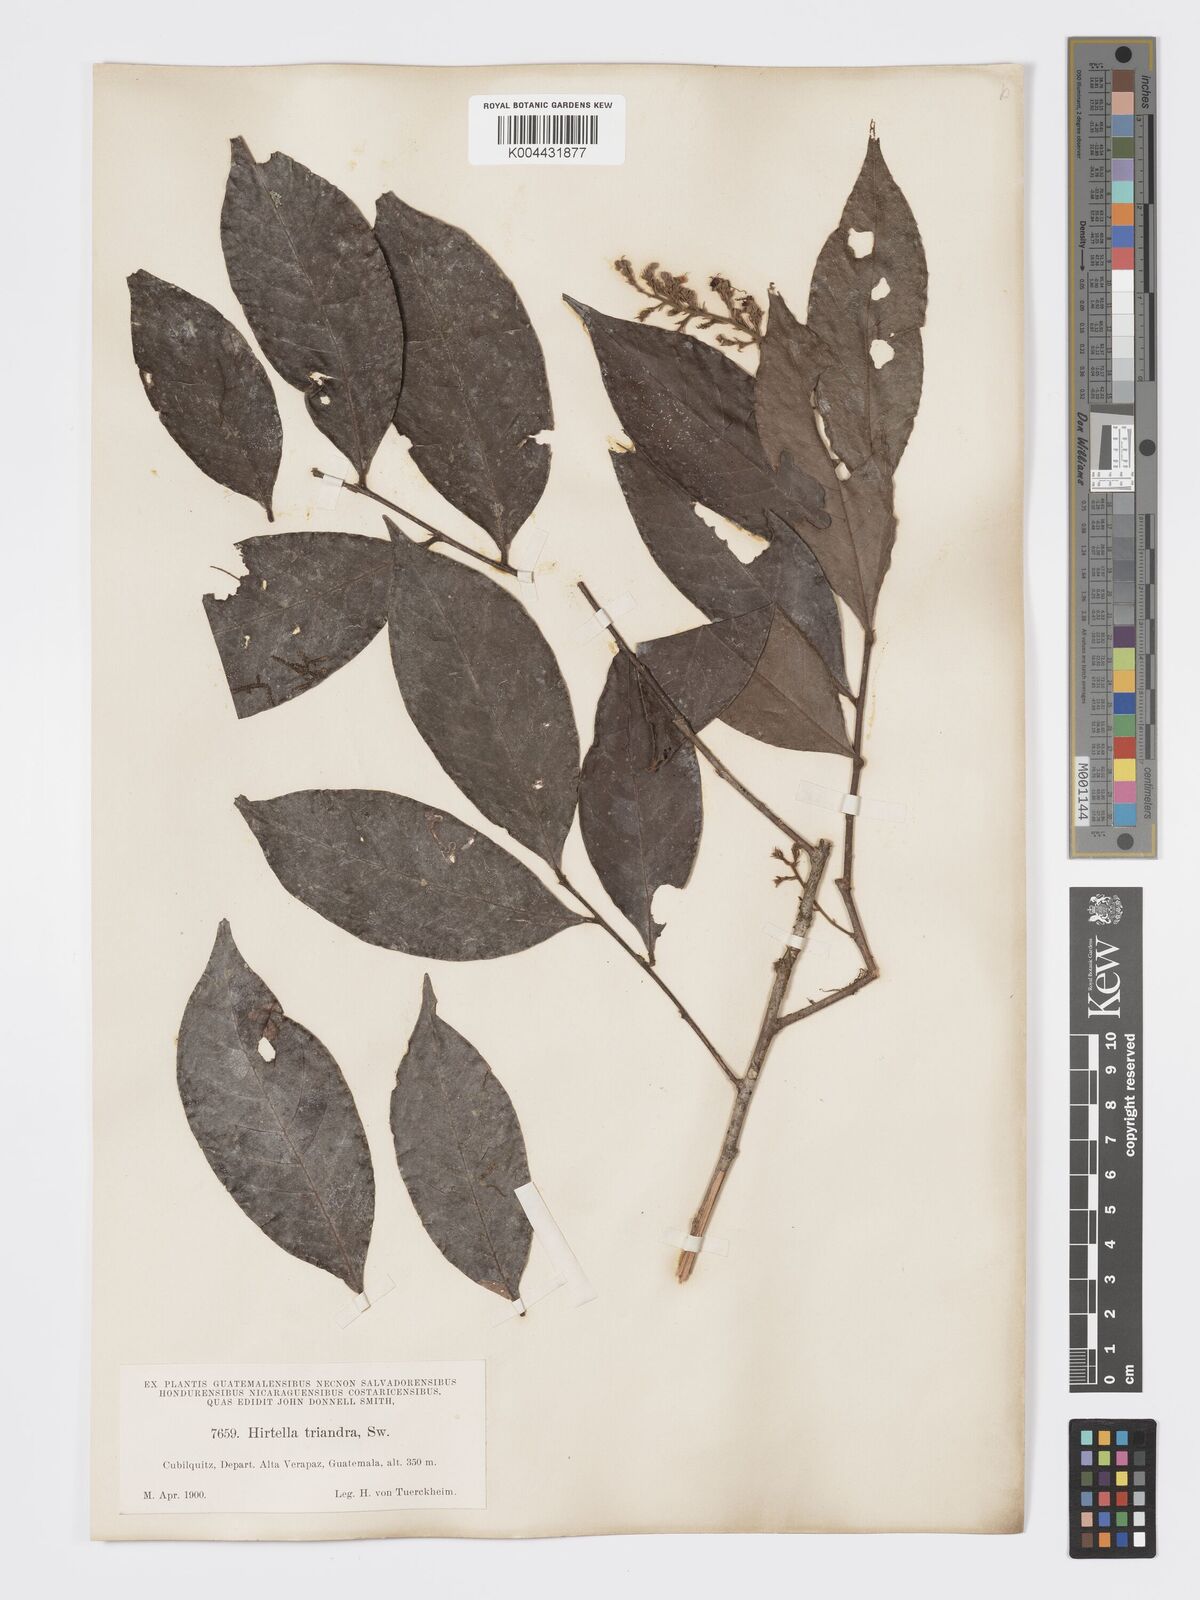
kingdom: Plantae
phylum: Tracheophyta
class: Magnoliopsida
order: Malpighiales
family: Chrysobalanaceae
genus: Hirtella
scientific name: Hirtella triandra
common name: Hairy plum
